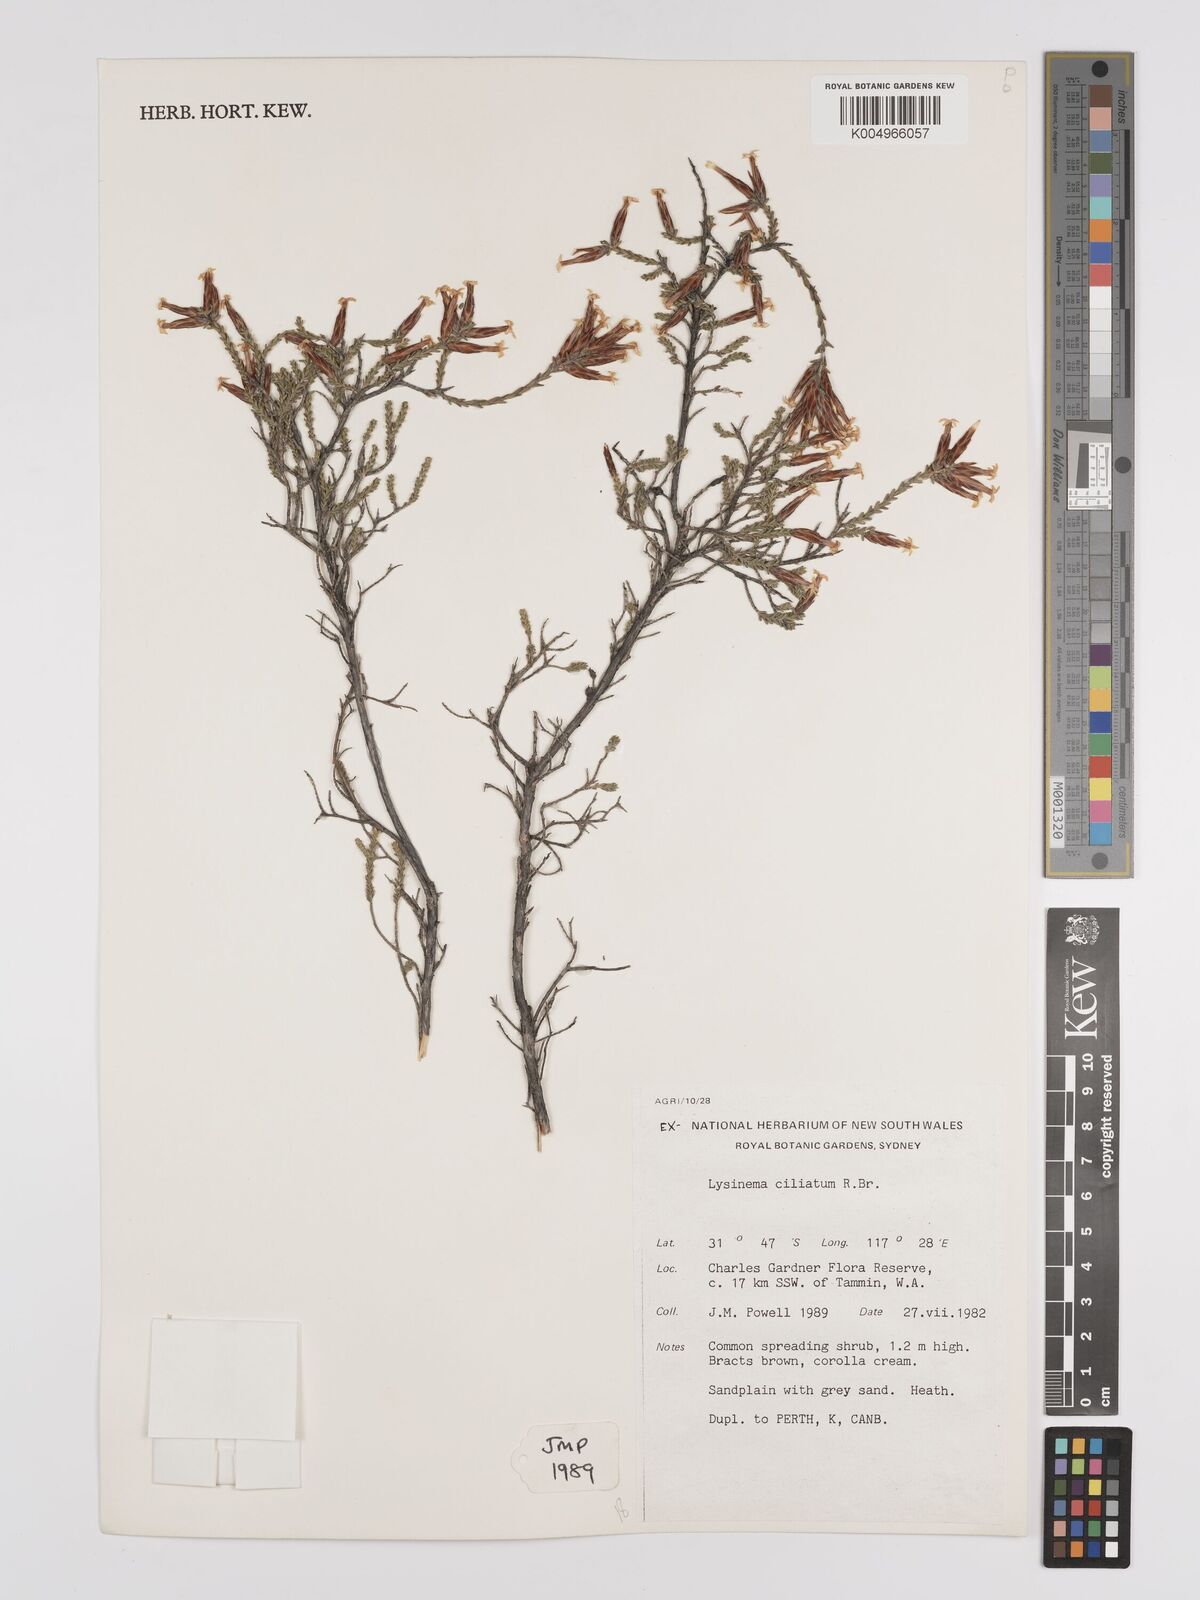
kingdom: Plantae
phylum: Tracheophyta
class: Magnoliopsida
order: Ericales
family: Ericaceae
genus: Lysinema
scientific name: Lysinema ciliatum
